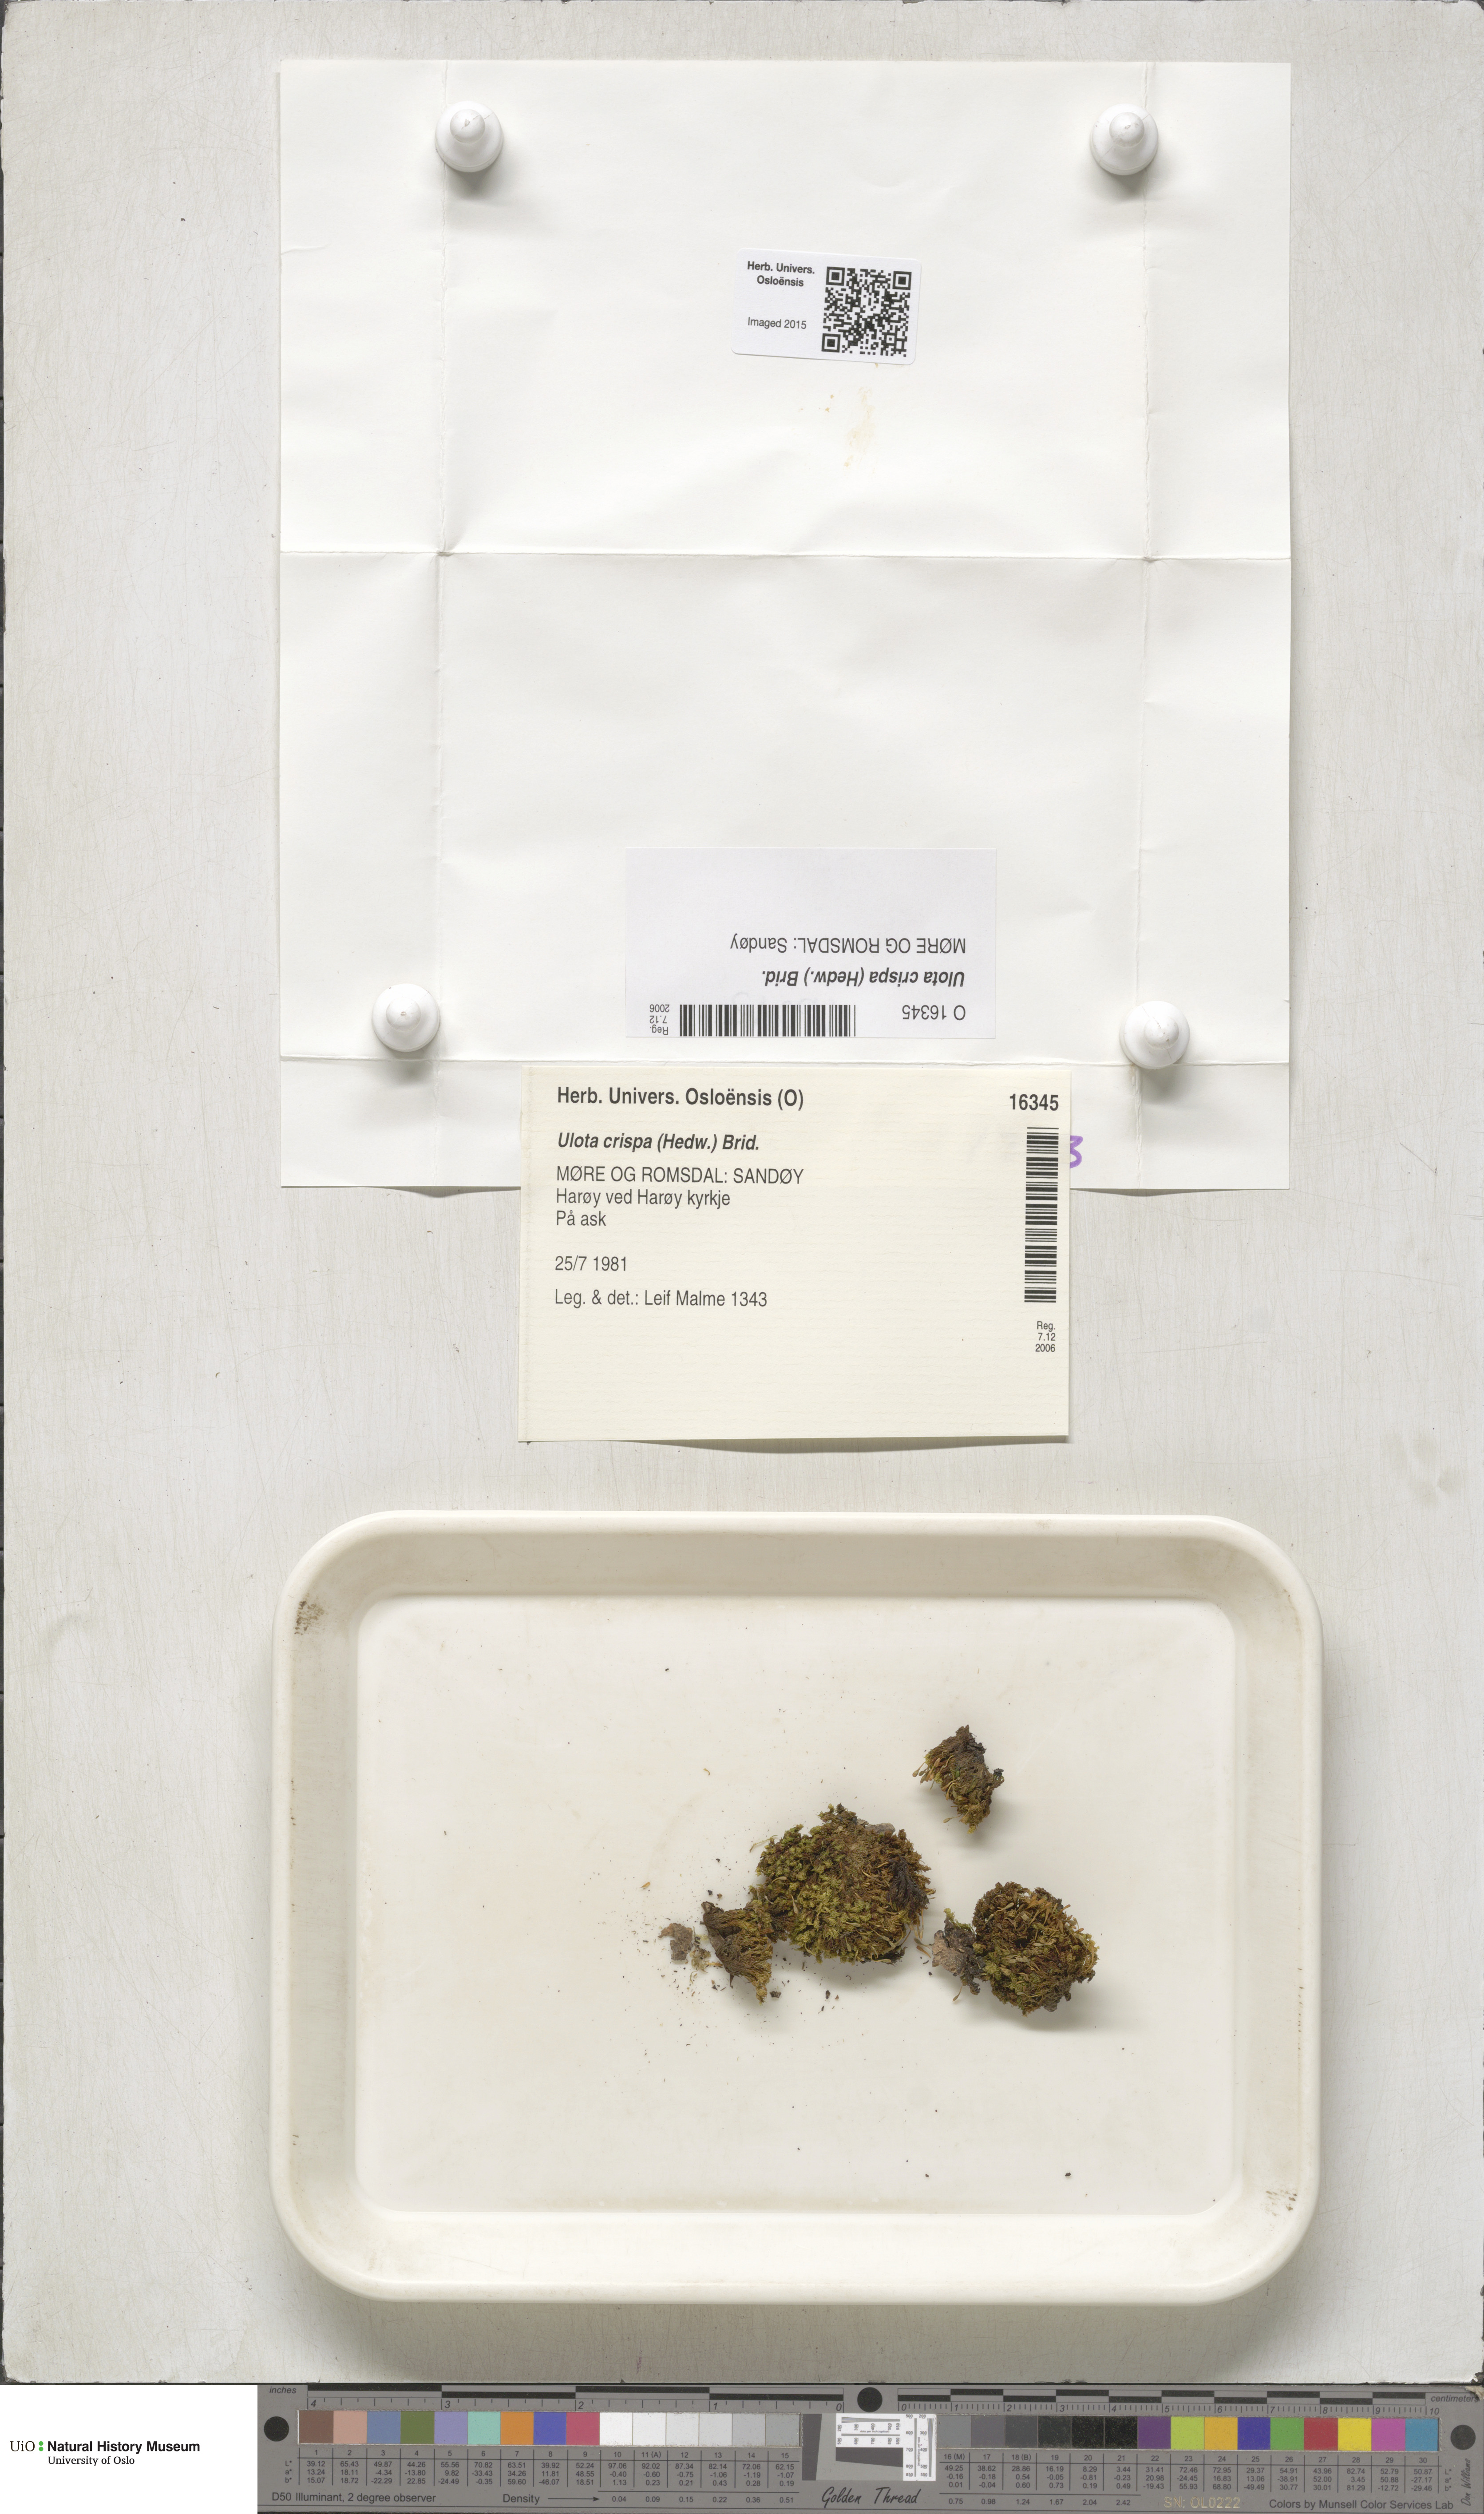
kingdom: Plantae
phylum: Bryophyta
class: Bryopsida
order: Orthotrichales
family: Orthotrichaceae
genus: Ulota
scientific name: Ulota crispa
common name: Crisped pincushion moss
